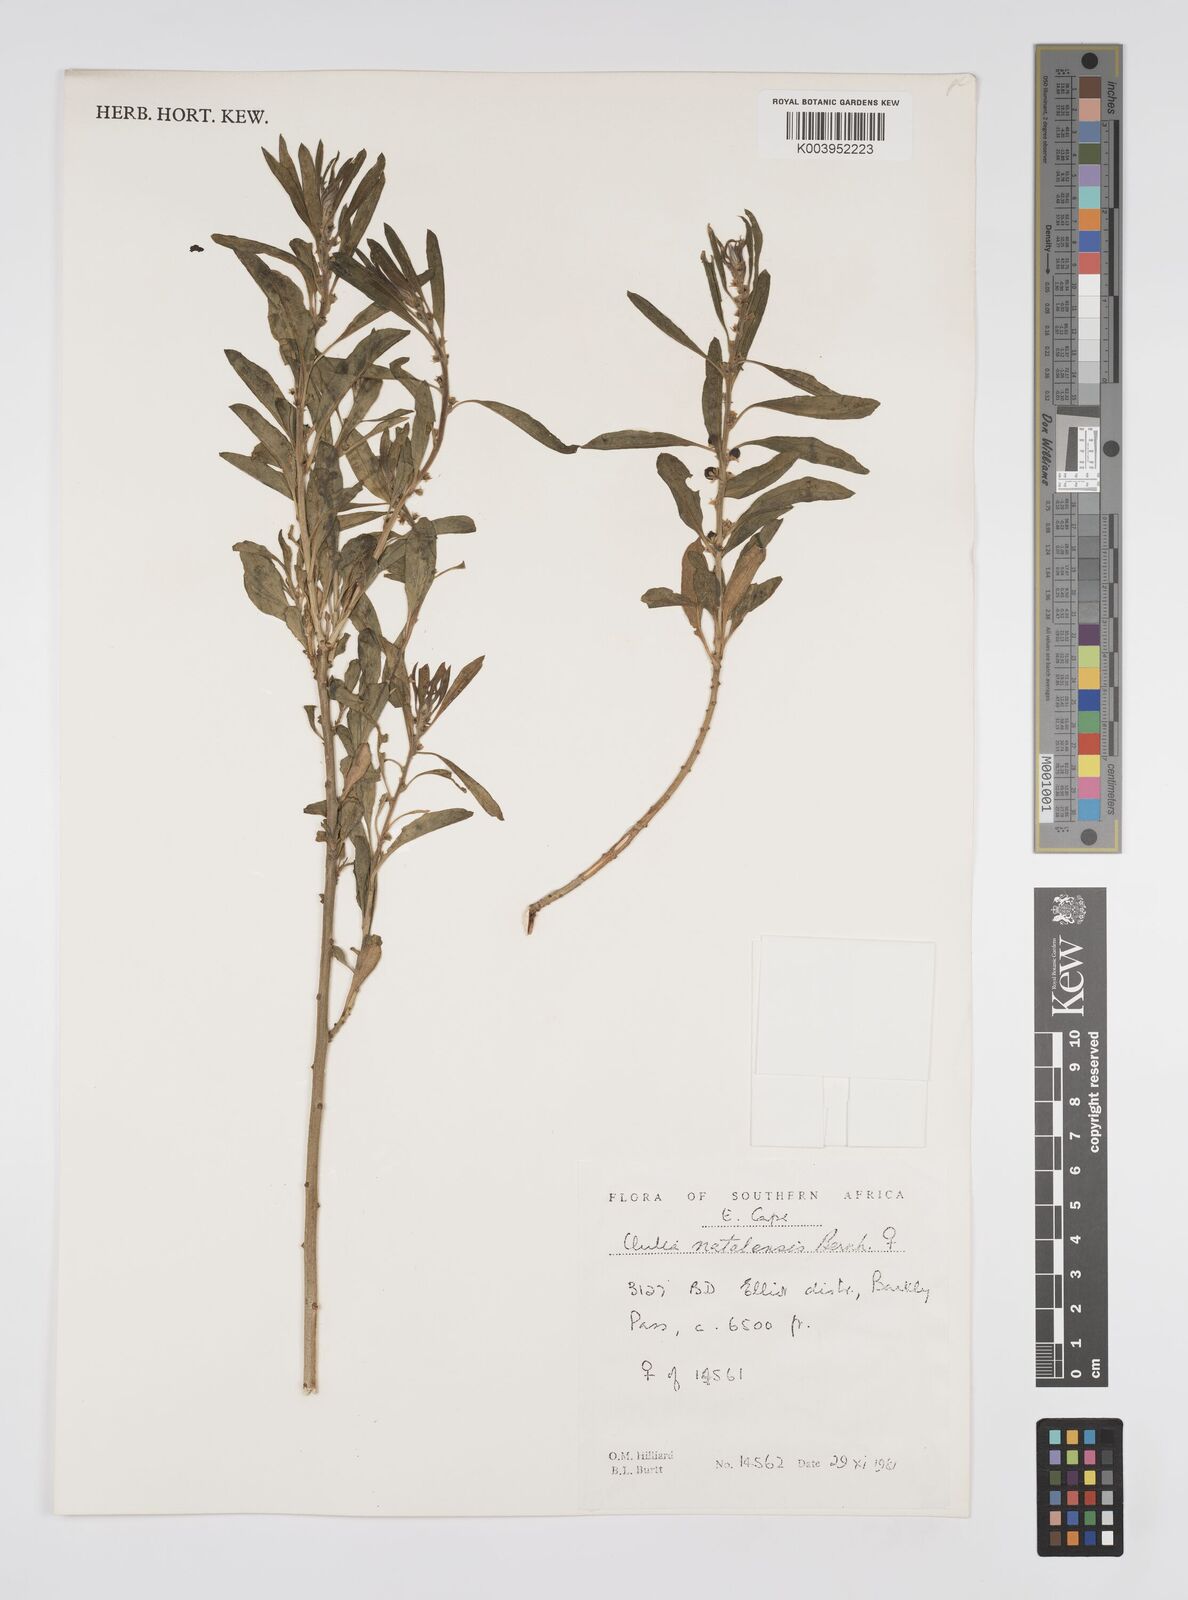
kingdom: Plantae
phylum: Tracheophyta
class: Magnoliopsida
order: Malpighiales
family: Peraceae
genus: Clutia
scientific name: Clutia natalensis
